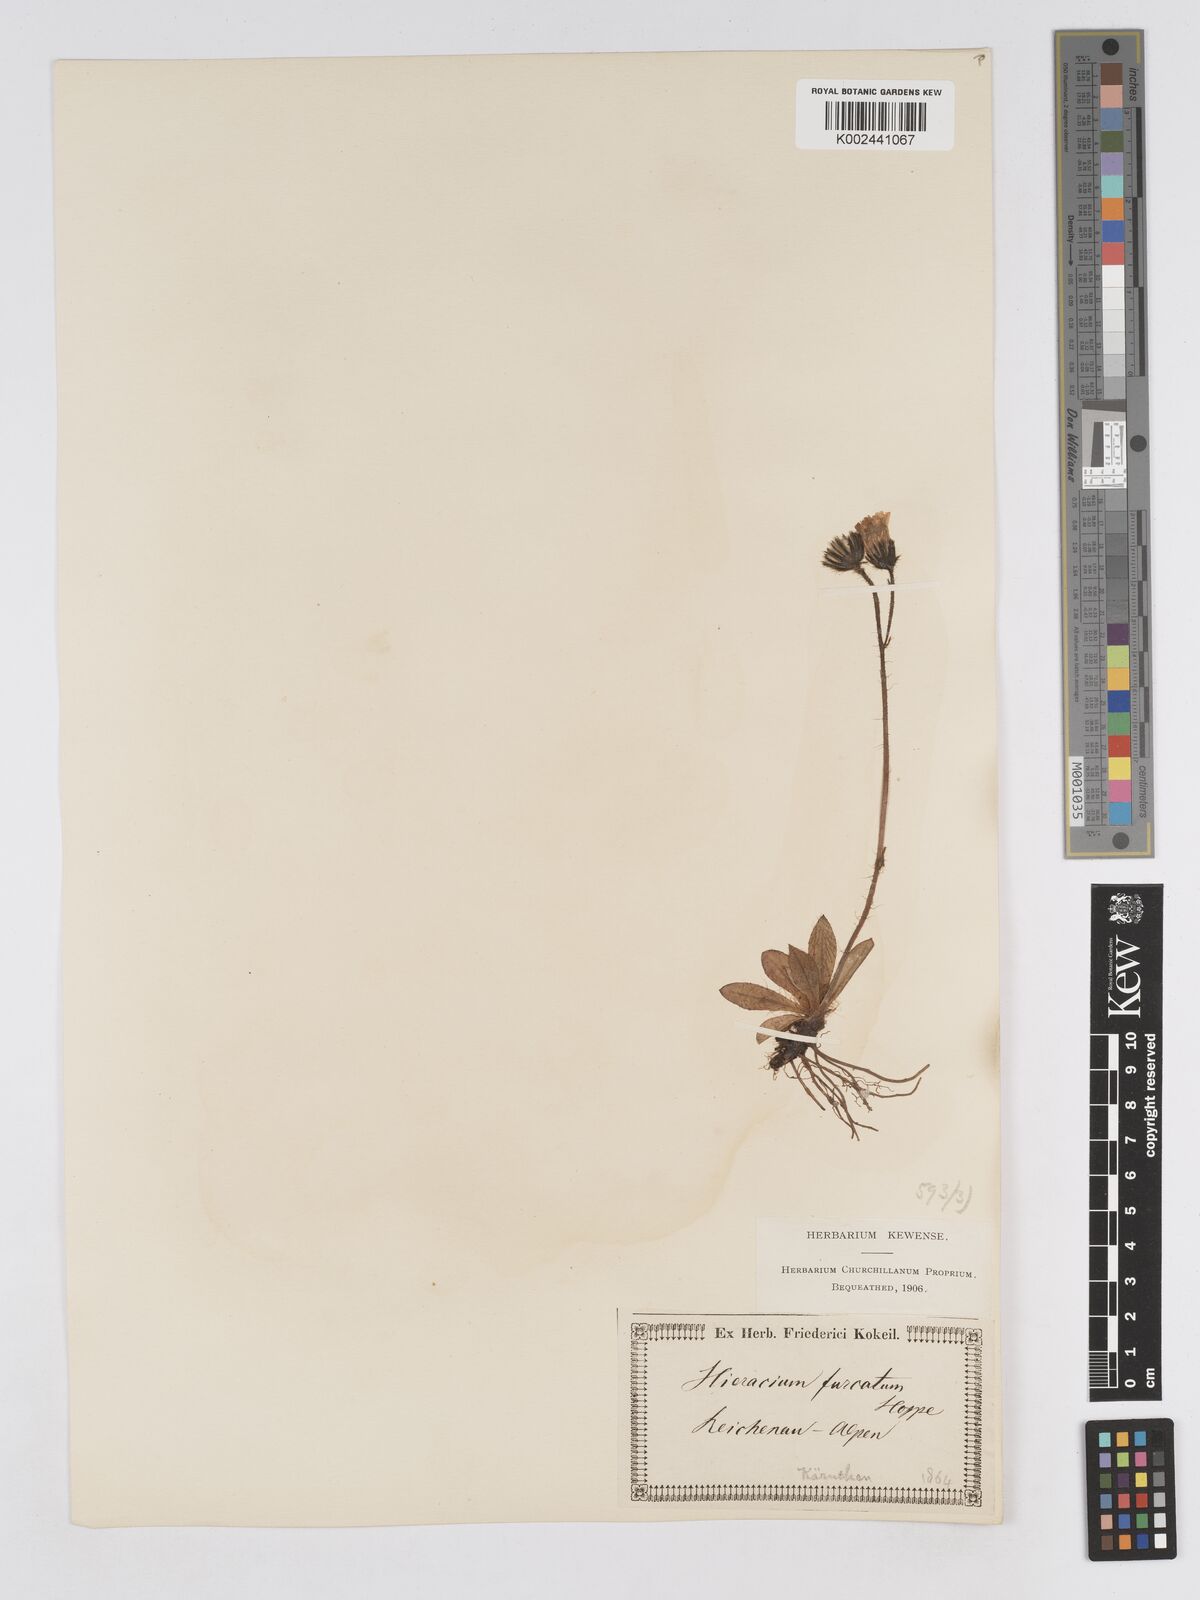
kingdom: Plantae
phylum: Tracheophyta
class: Magnoliopsida
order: Asterales
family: Asteraceae
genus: Pilosella
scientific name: Pilosella sphaerocephala
